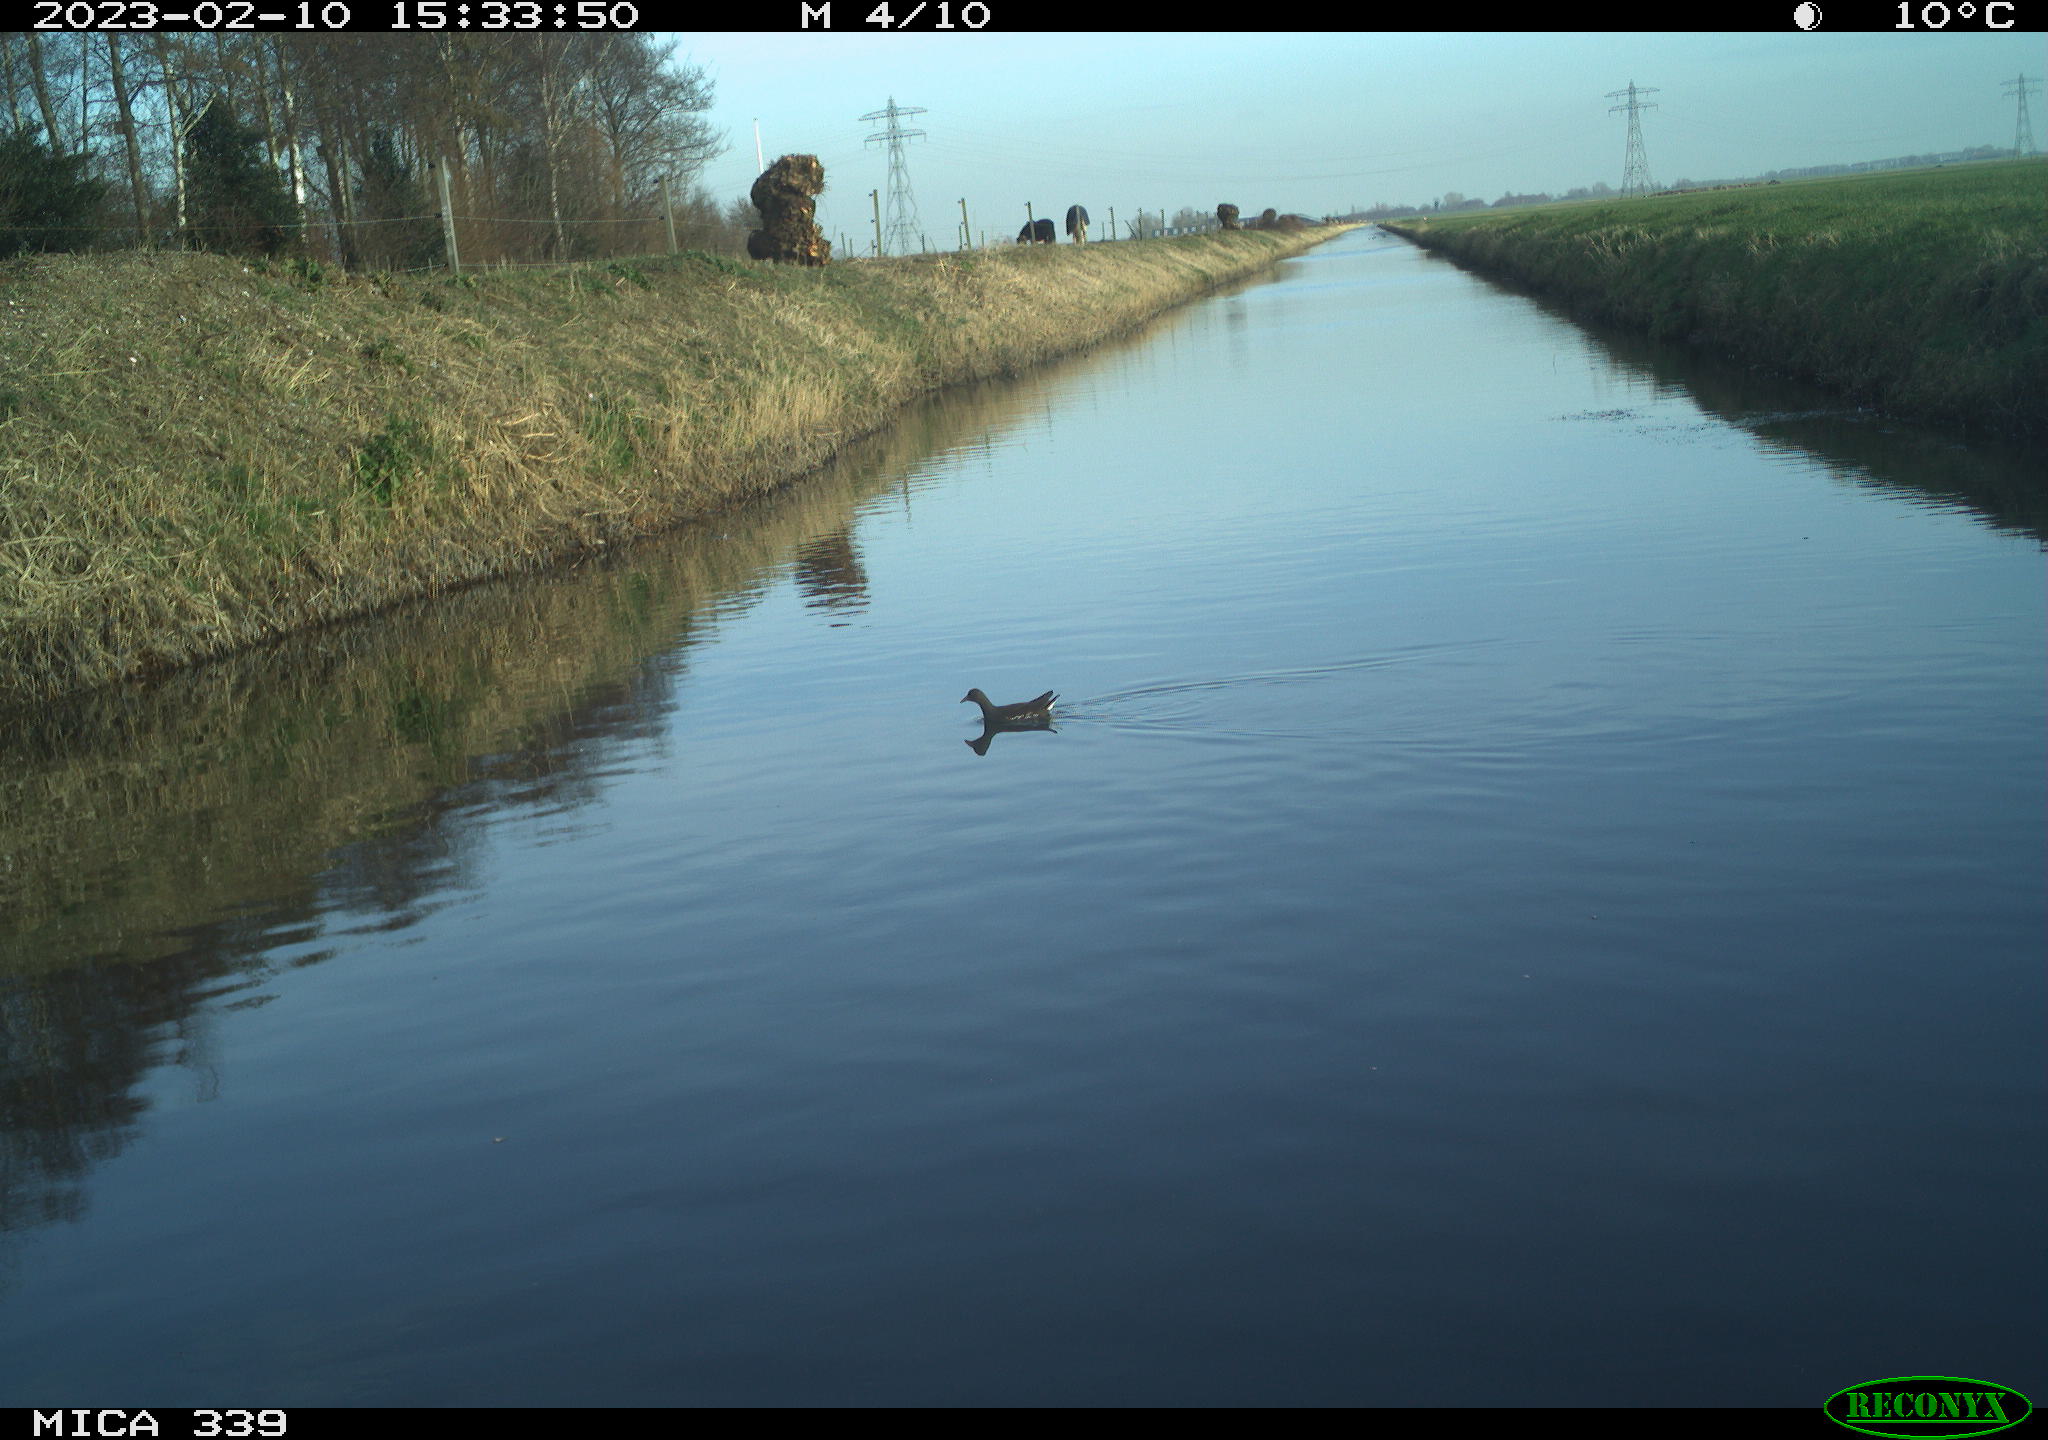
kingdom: Animalia
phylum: Chordata
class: Aves
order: Gruiformes
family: Rallidae
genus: Gallinula
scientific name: Gallinula chloropus
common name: Common moorhen
